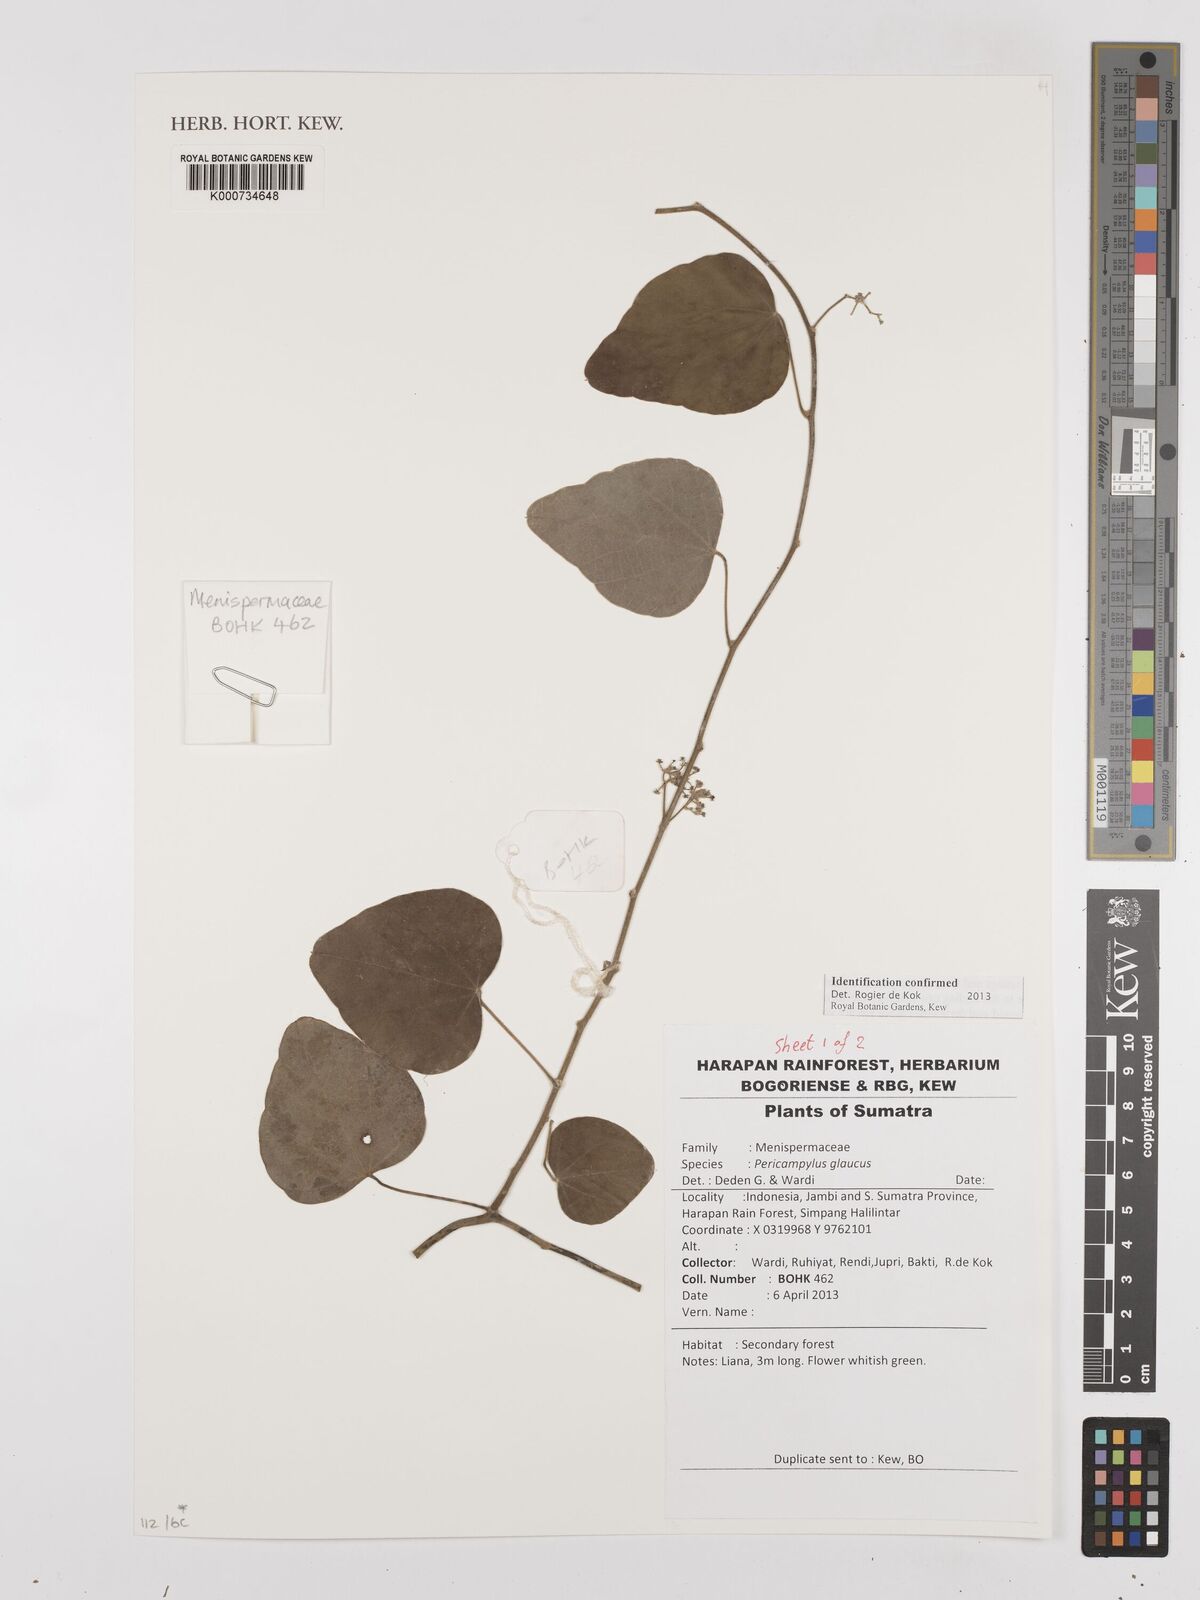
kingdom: Plantae
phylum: Tracheophyta
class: Magnoliopsida
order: Ranunculales
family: Menispermaceae
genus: Pericampylus
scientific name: Pericampylus glaucus
